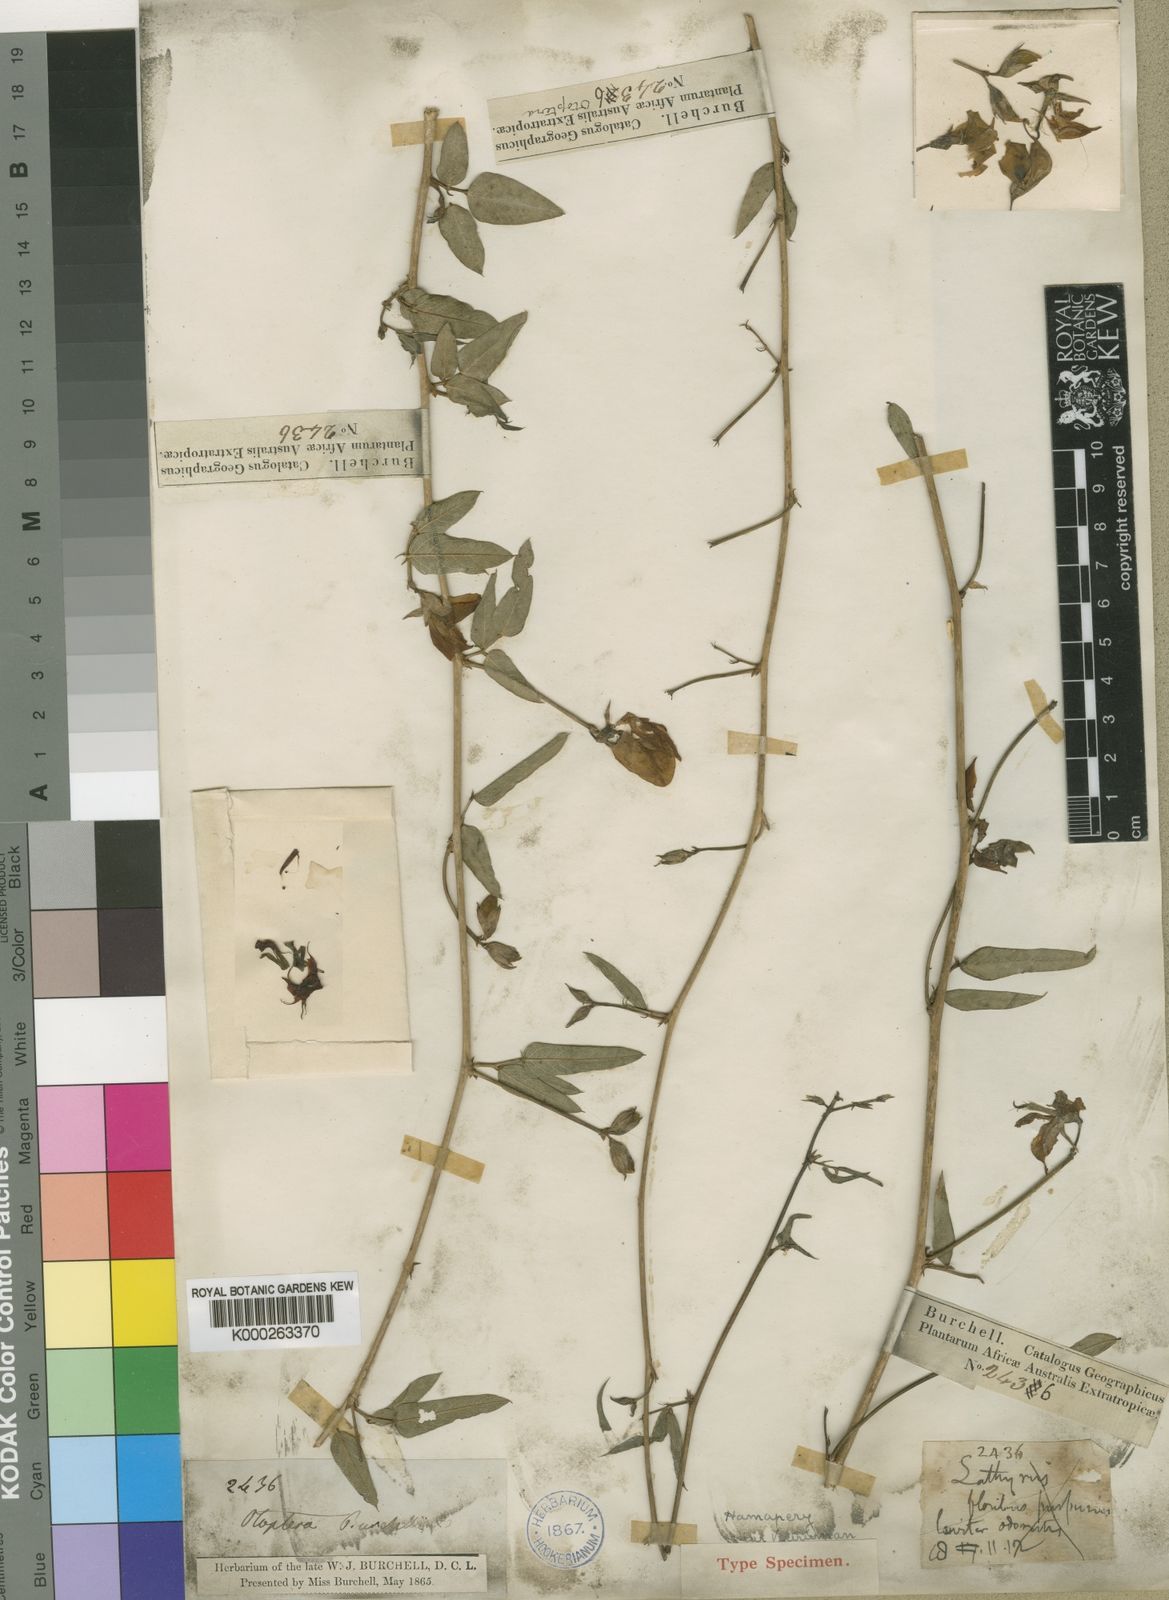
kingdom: Plantae
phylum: Tracheophyta
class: Magnoliopsida
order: Fabales
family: Fabaceae
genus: Otoptera
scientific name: Otoptera
